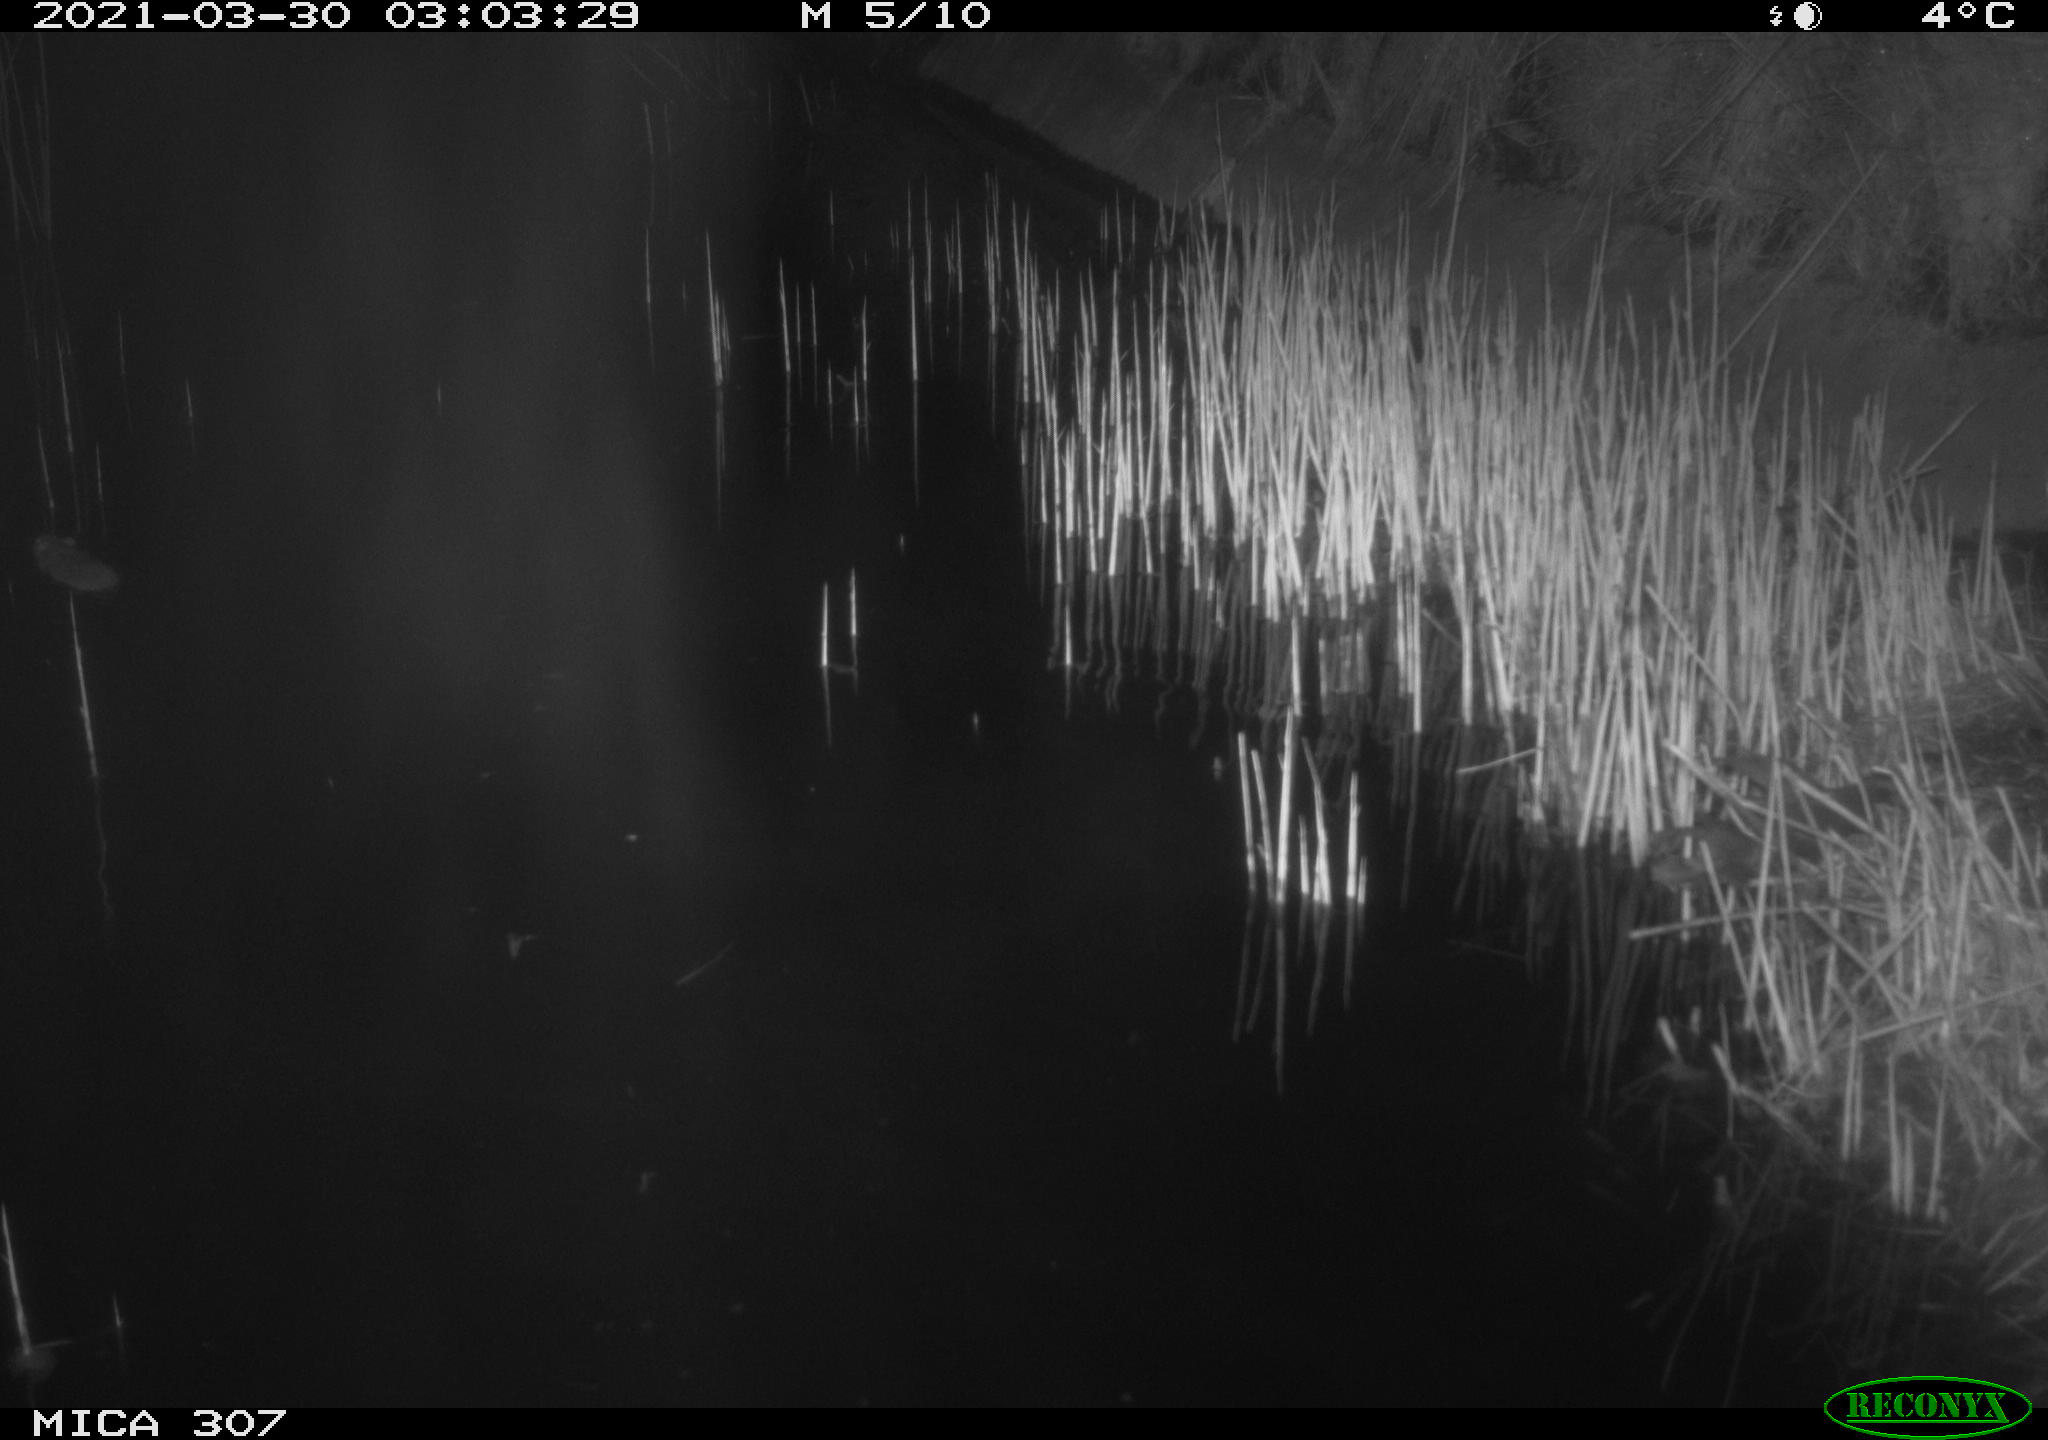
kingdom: Animalia
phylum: Chordata
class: Mammalia
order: Rodentia
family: Muridae
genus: Rattus
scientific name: Rattus norvegicus
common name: Brown rat
